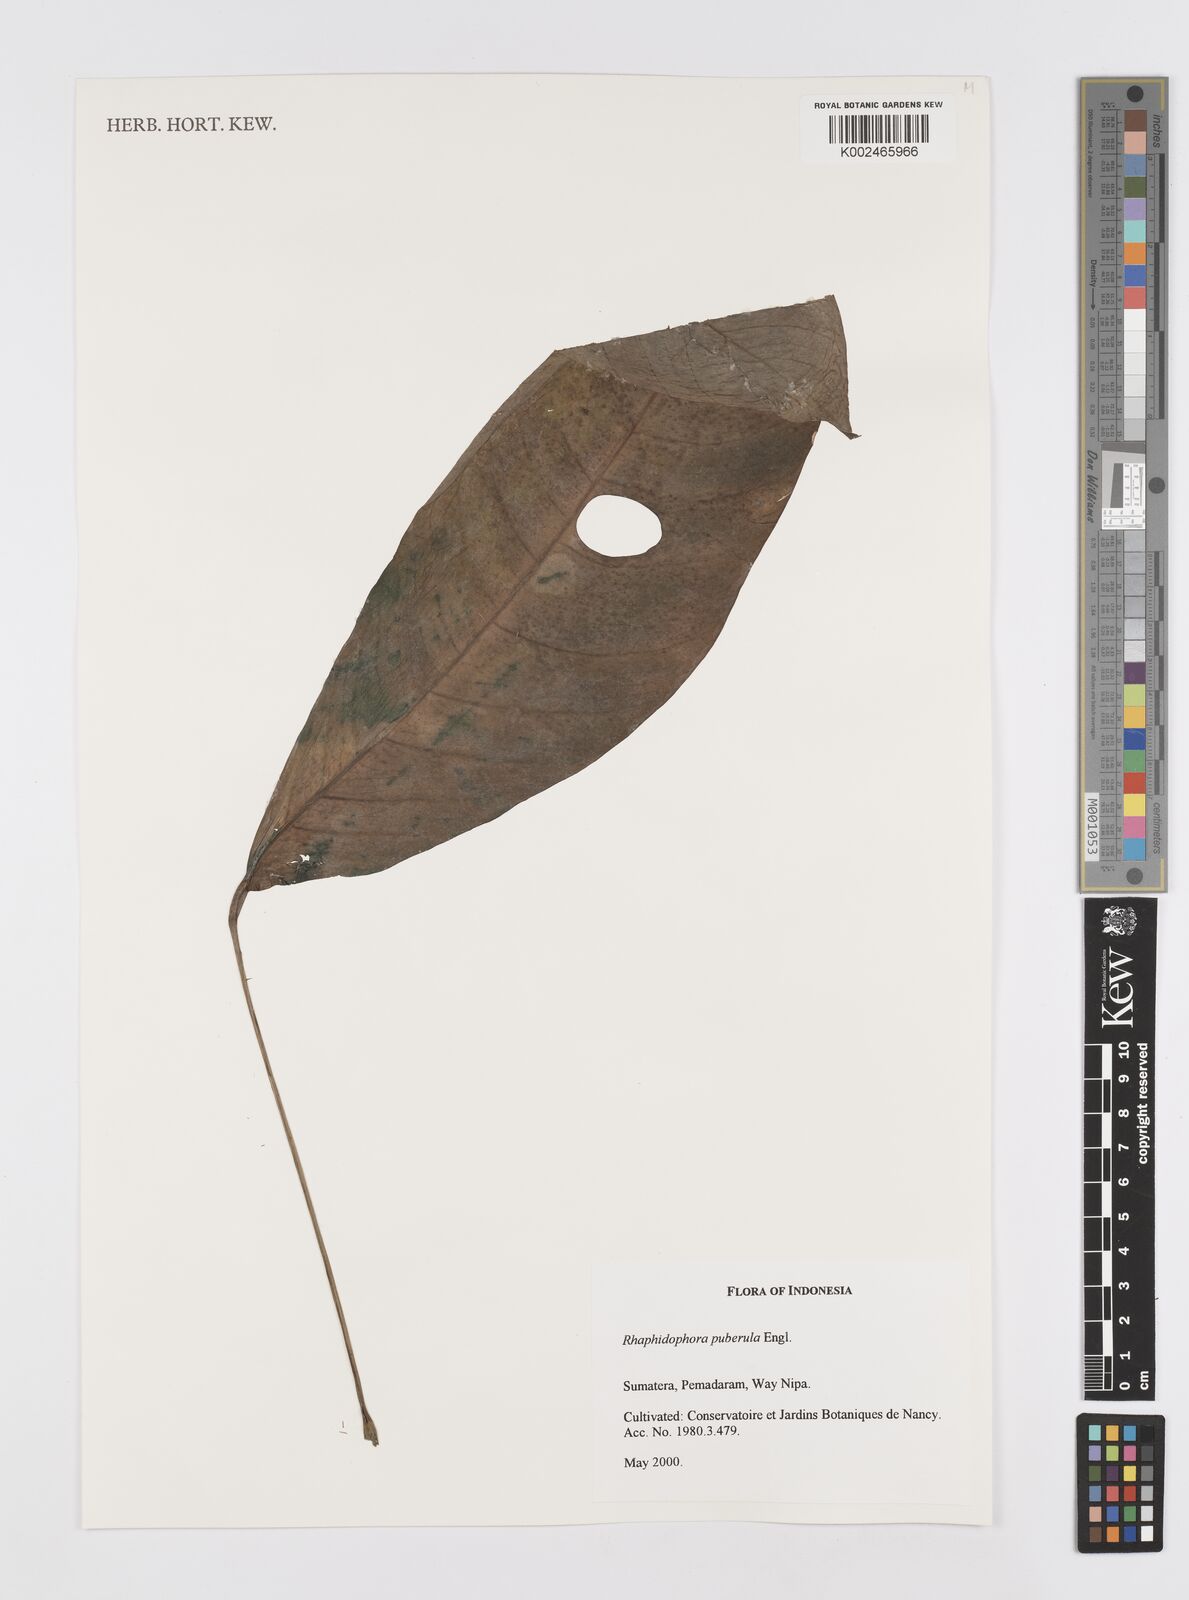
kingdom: Plantae
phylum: Tracheophyta
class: Liliopsida
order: Alismatales
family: Araceae
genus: Rhaphidophora
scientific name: Rhaphidophora puberula
